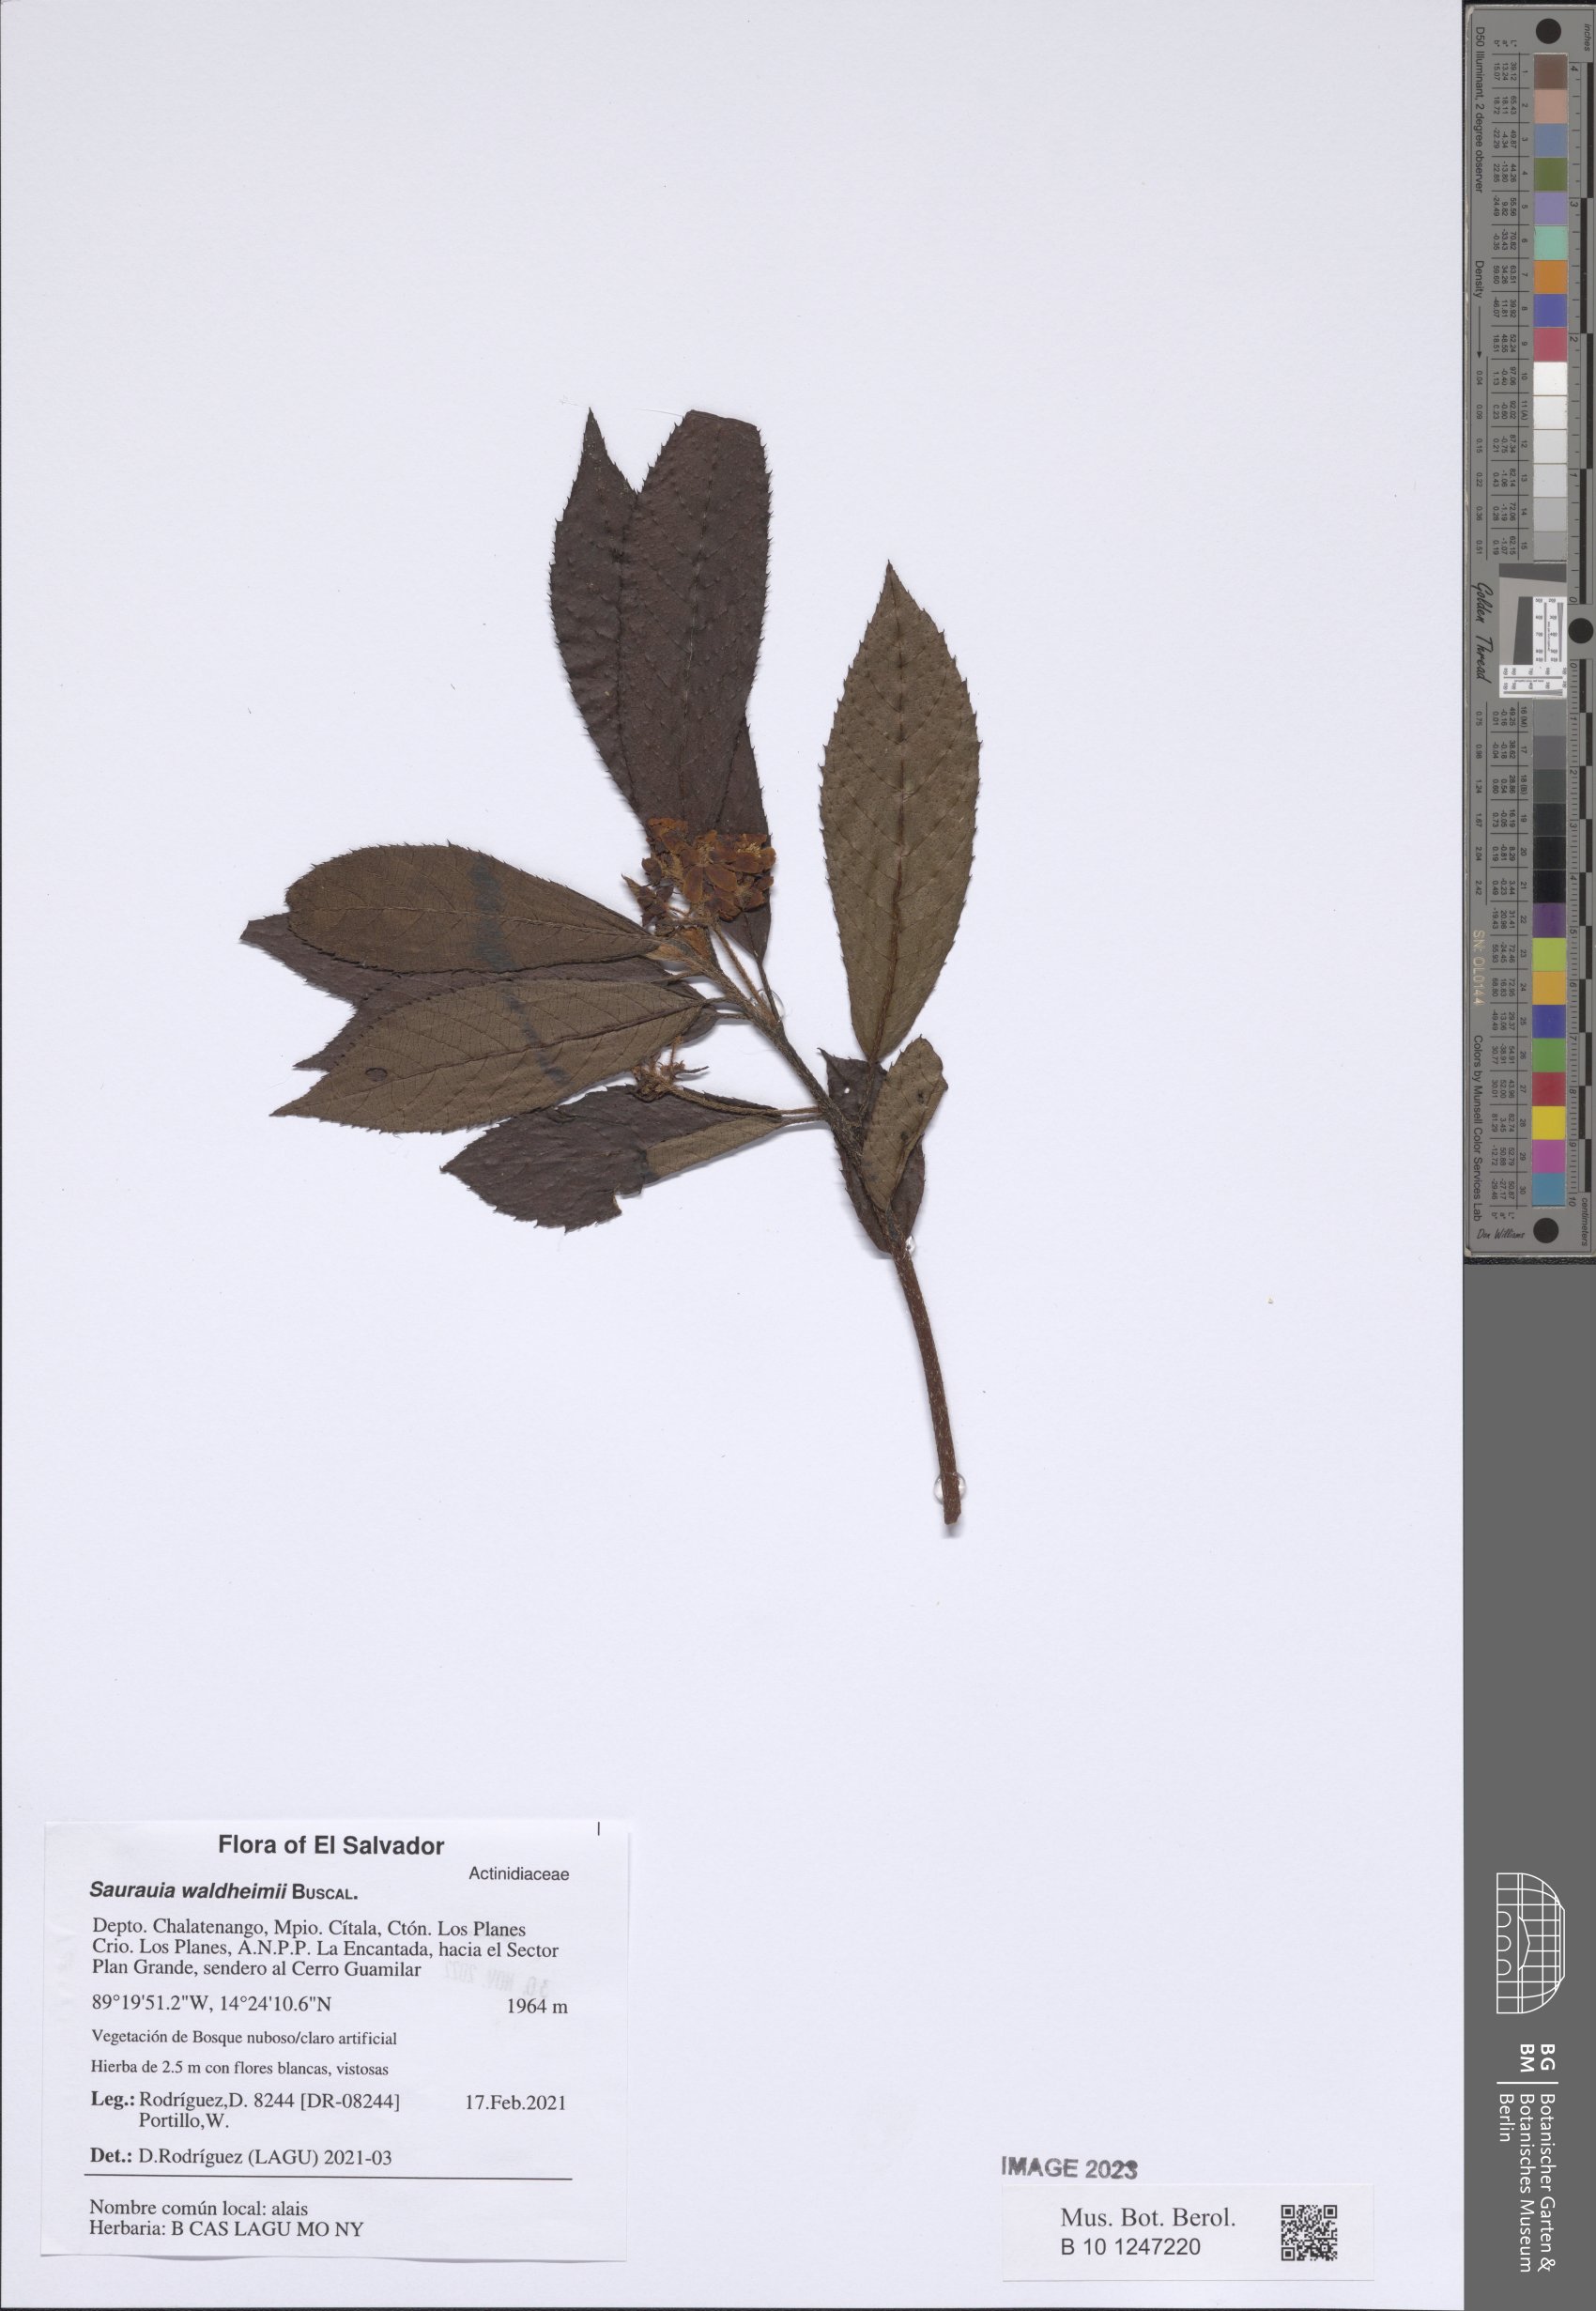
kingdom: Plantae
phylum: Tracheophyta
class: Magnoliopsida
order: Ericales
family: Actinidiaceae
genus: Saurauia
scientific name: Saurauia waldheimii
